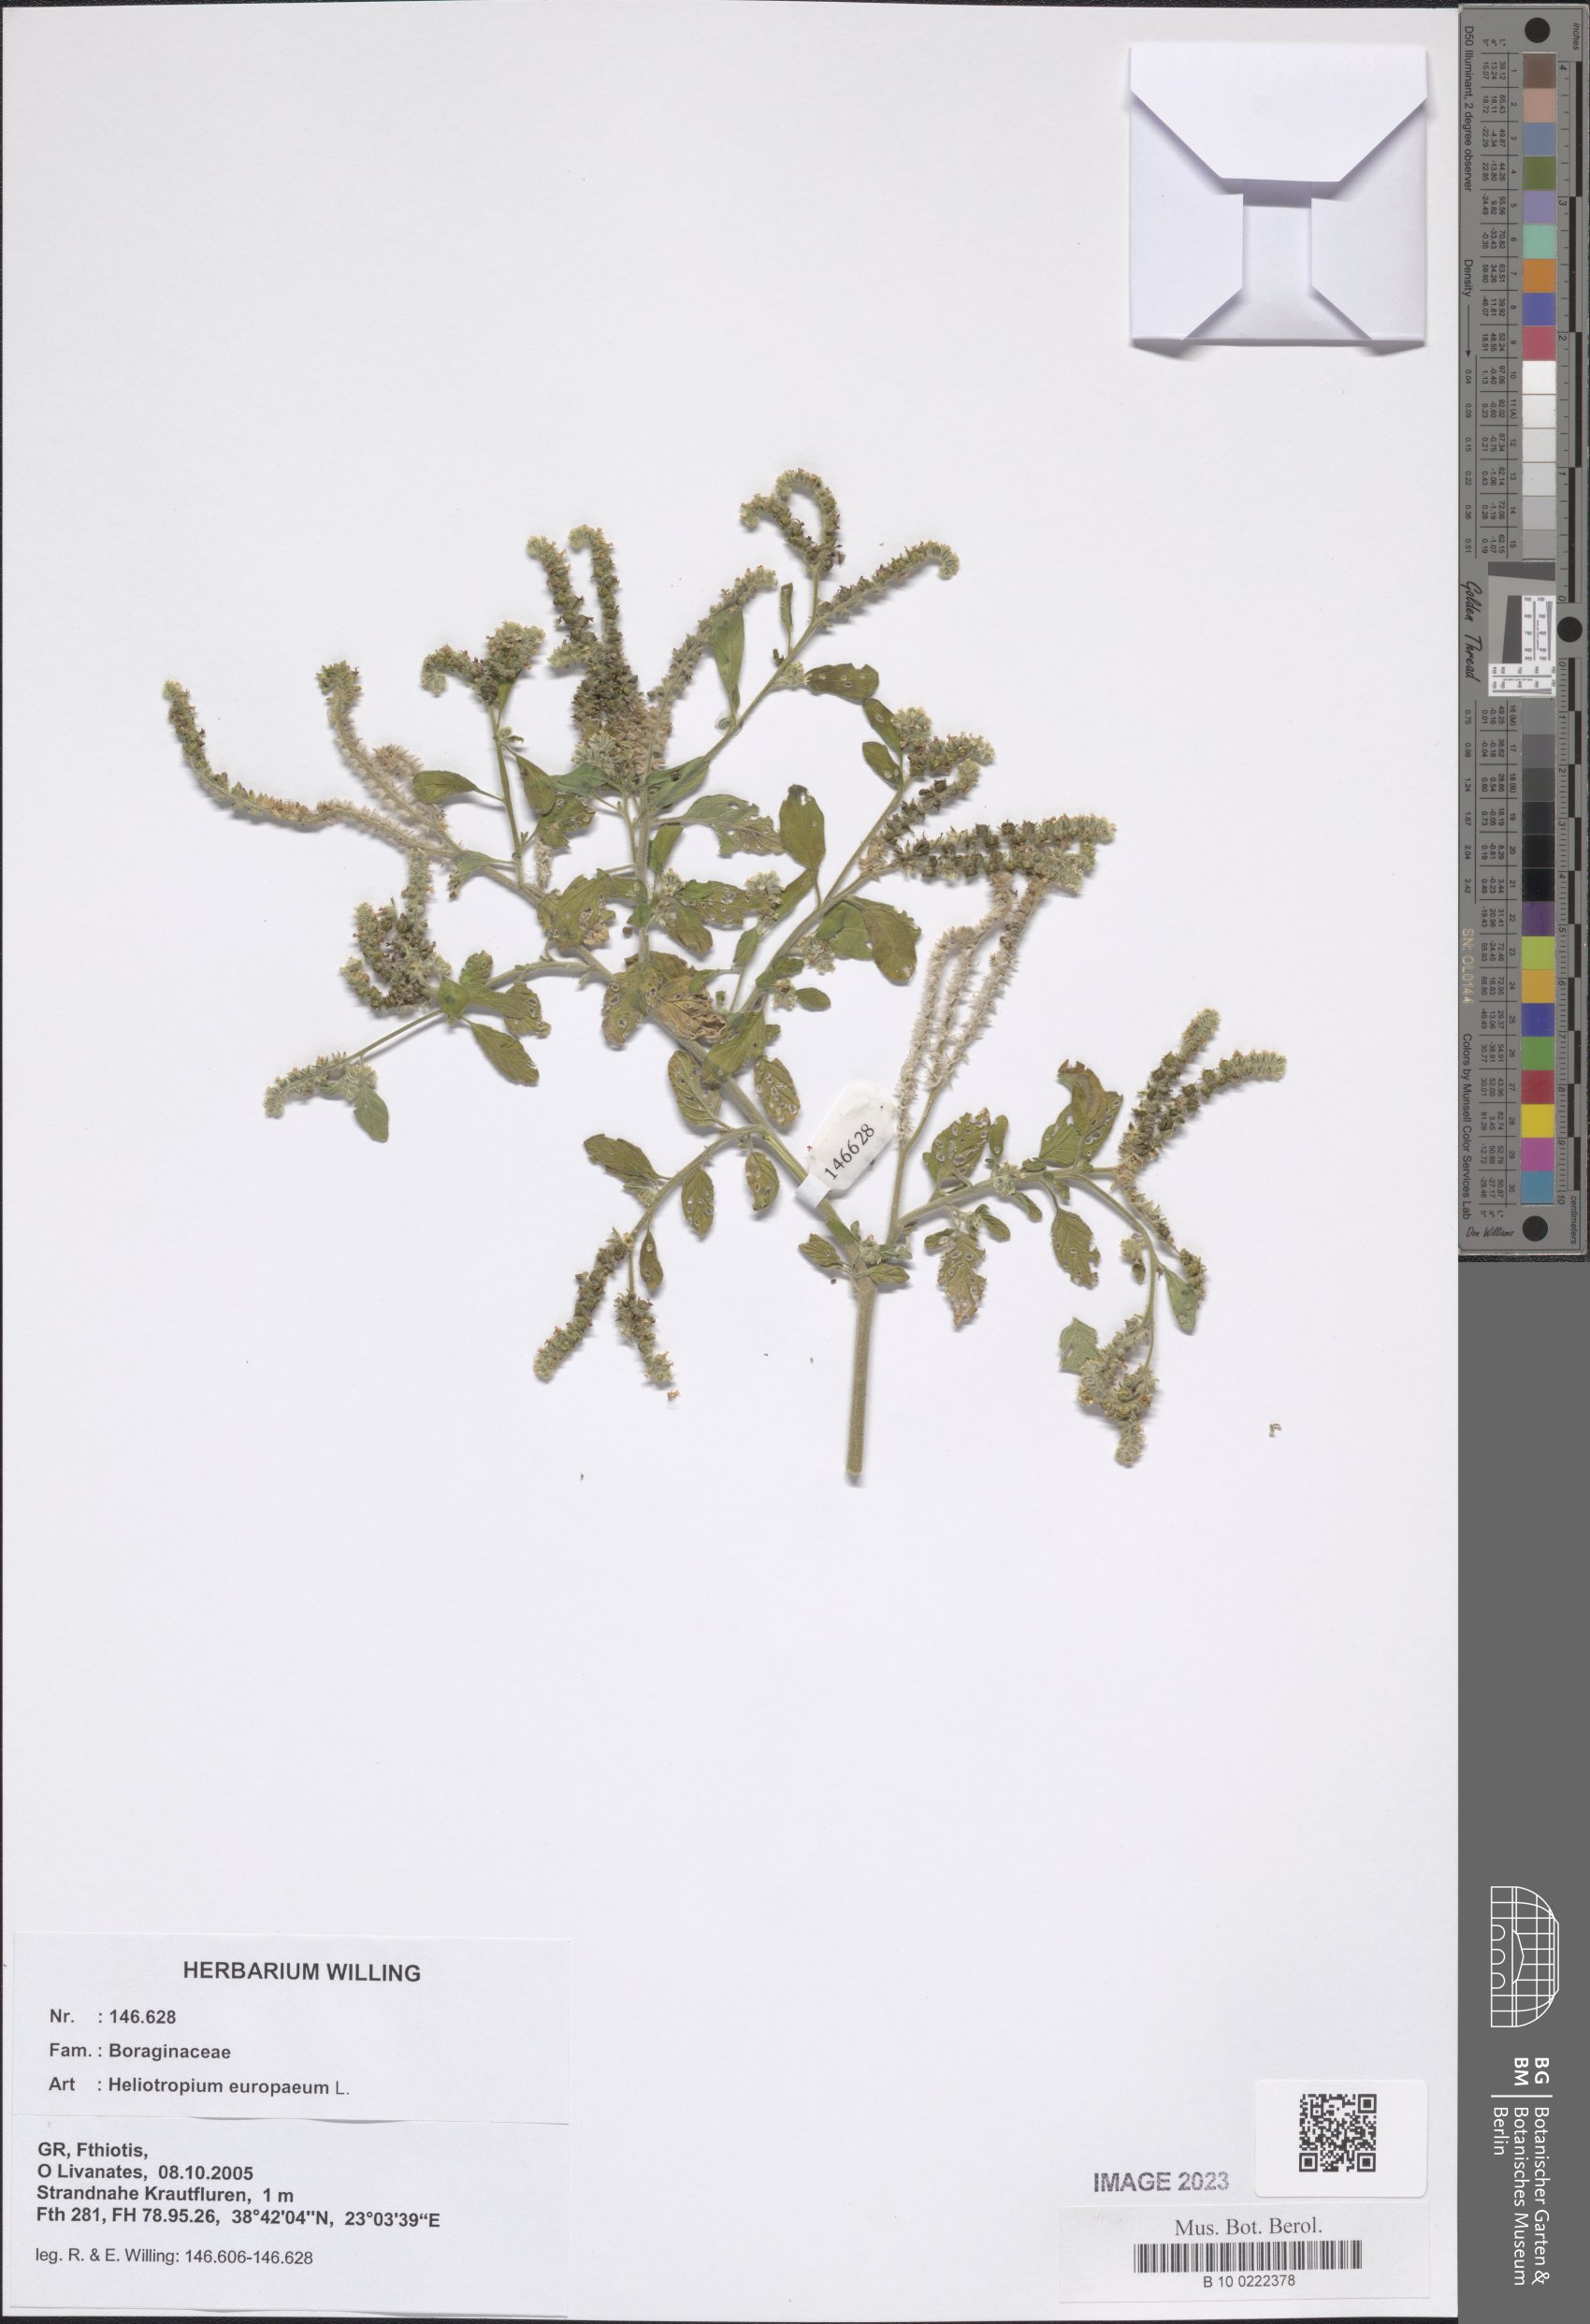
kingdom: Plantae
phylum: Tracheophyta
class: Magnoliopsida
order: Boraginales
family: Heliotropiaceae
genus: Heliotropium
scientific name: Heliotropium europaeum
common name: European heliotrope
